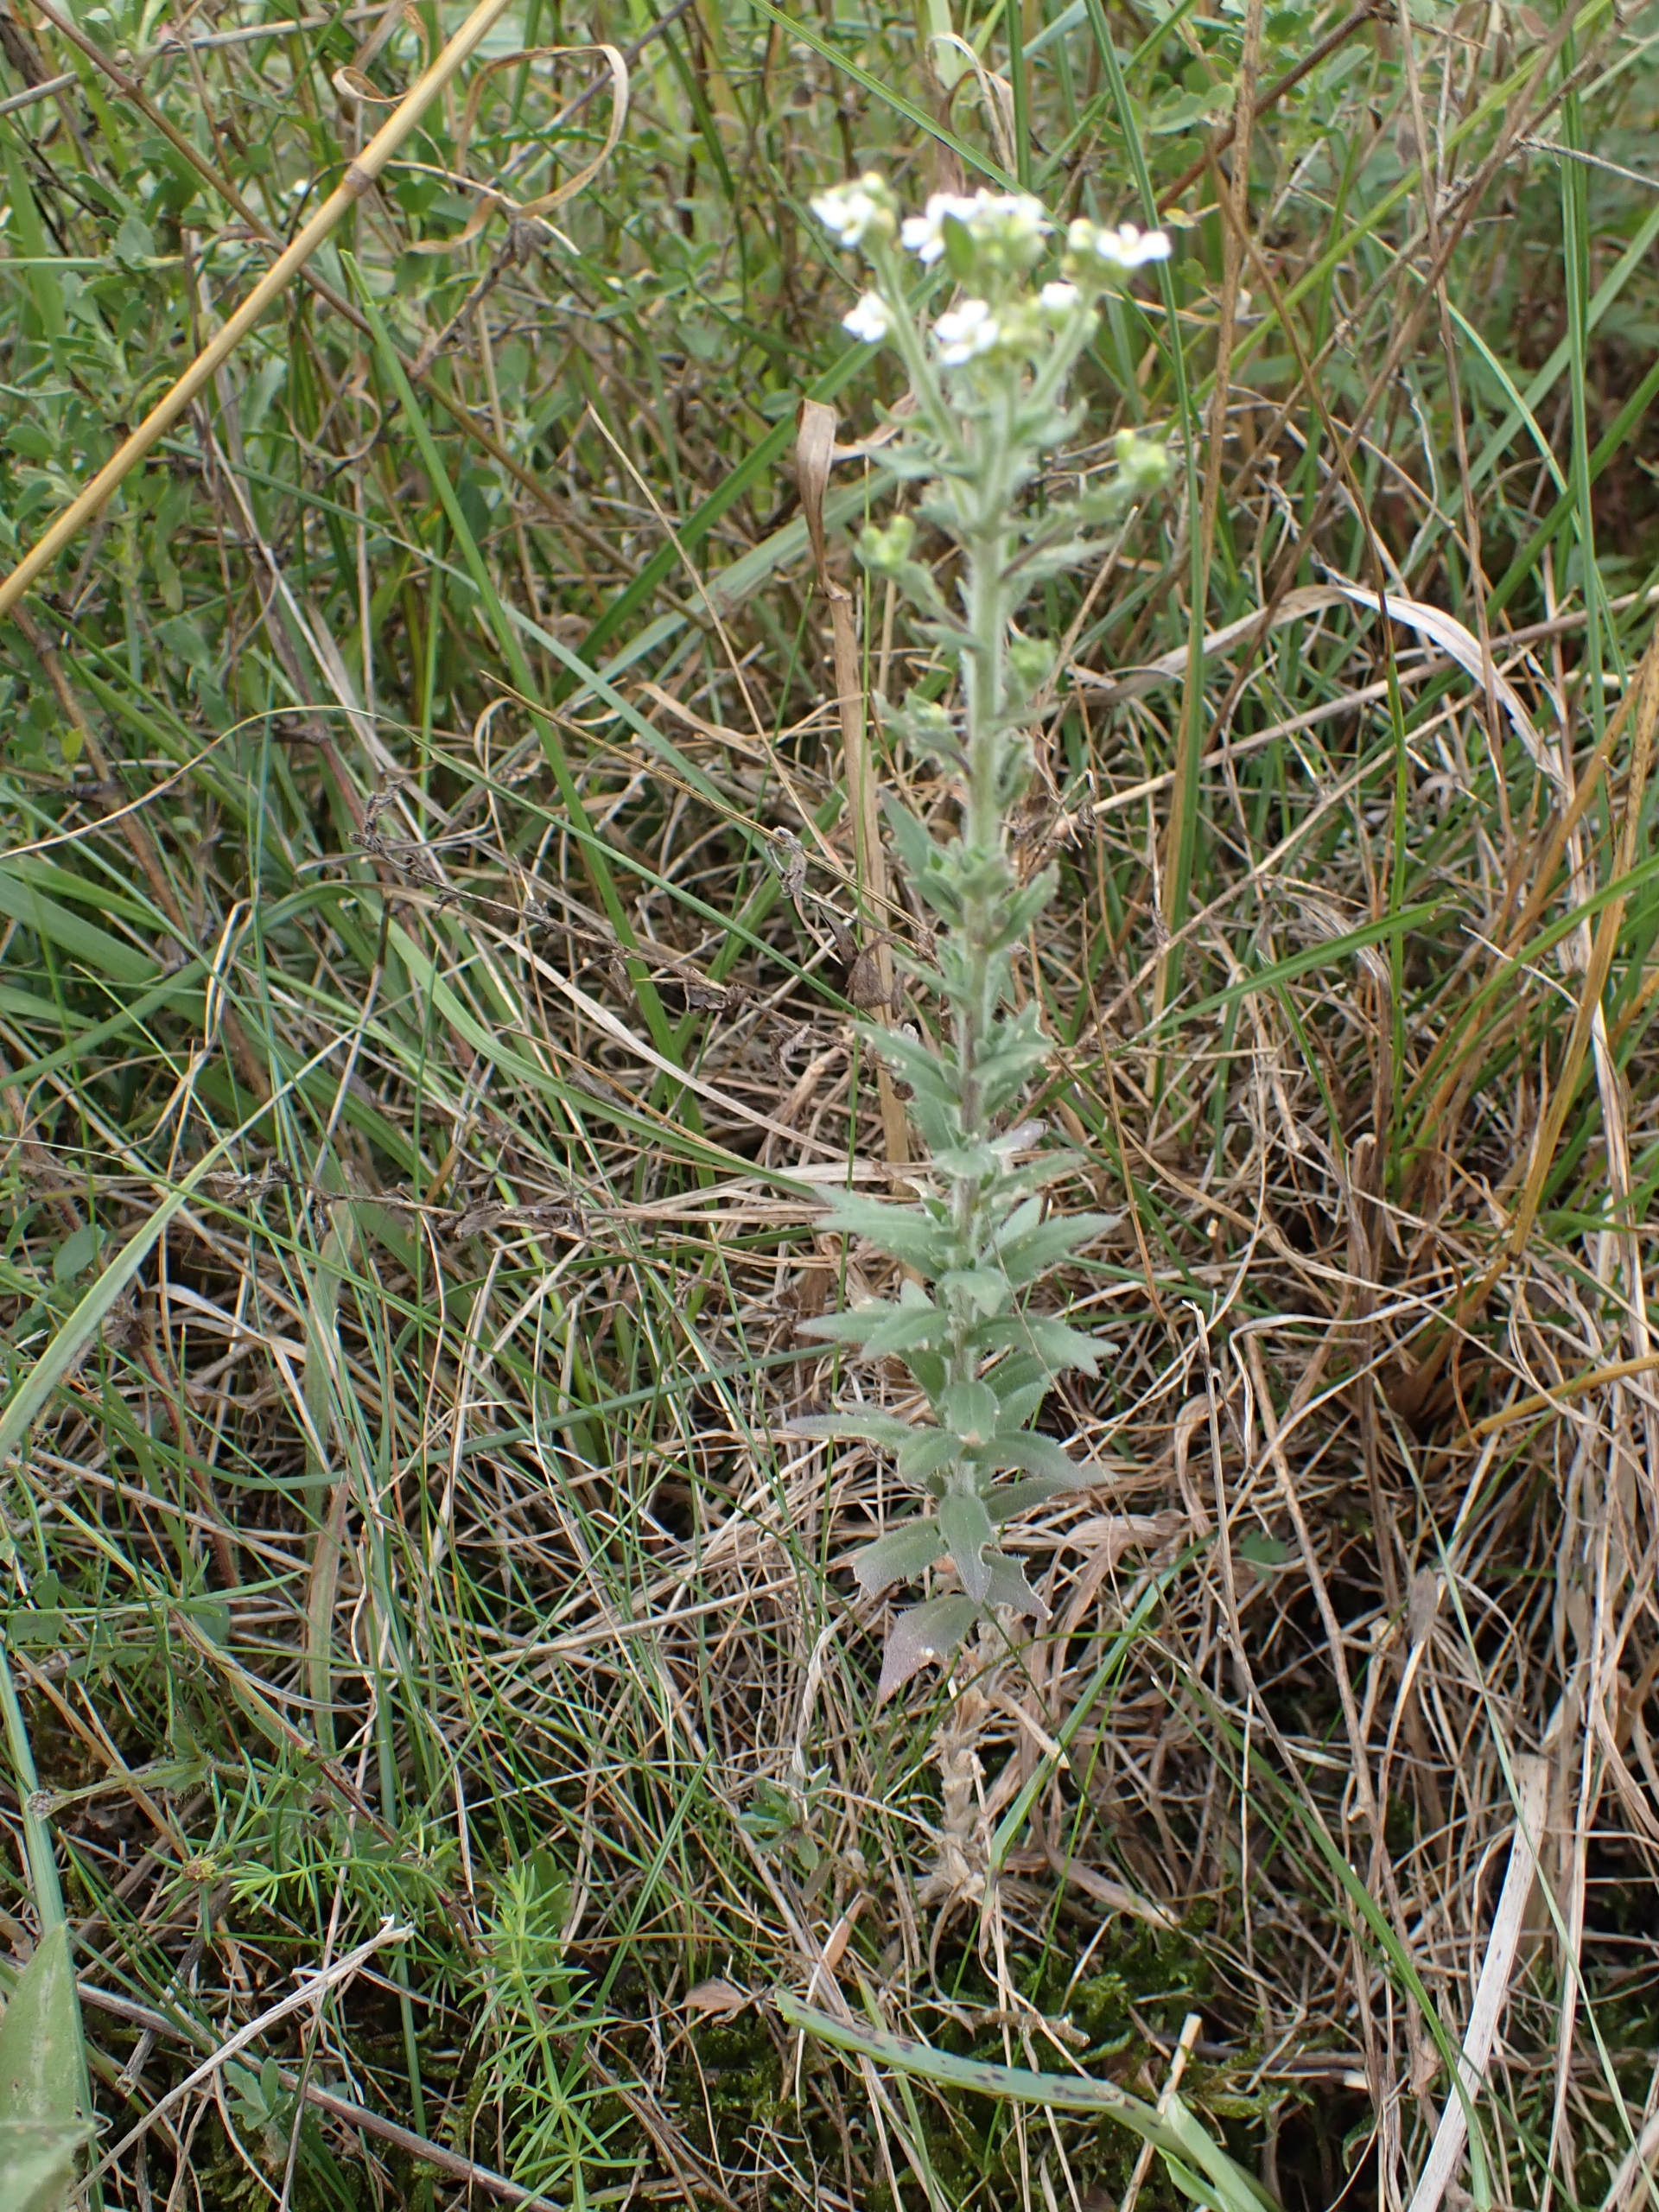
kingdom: Plantae
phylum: Tracheophyta
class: Magnoliopsida
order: Brassicales
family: Brassicaceae
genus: Draba
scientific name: Draba incana
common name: Hvidgrå draba
